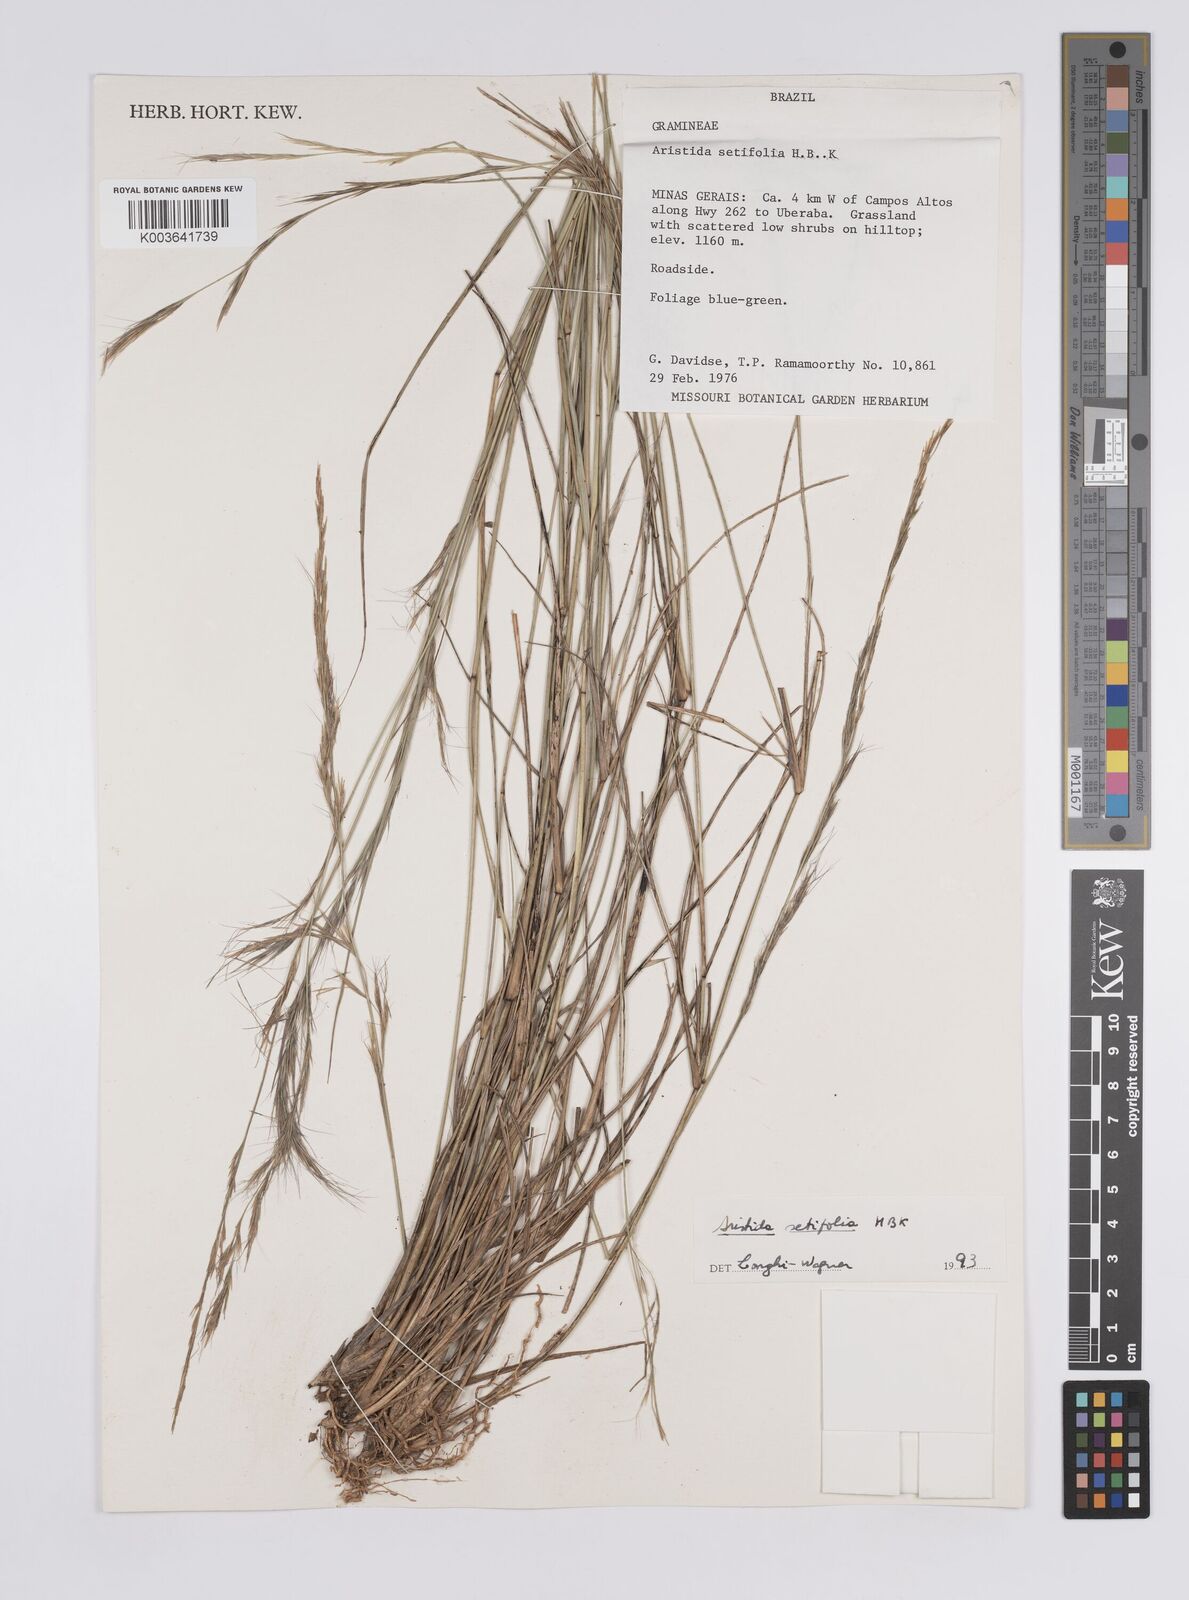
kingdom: Plantae
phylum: Tracheophyta
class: Liliopsida
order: Poales
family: Poaceae
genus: Aristida
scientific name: Aristida setifolia
